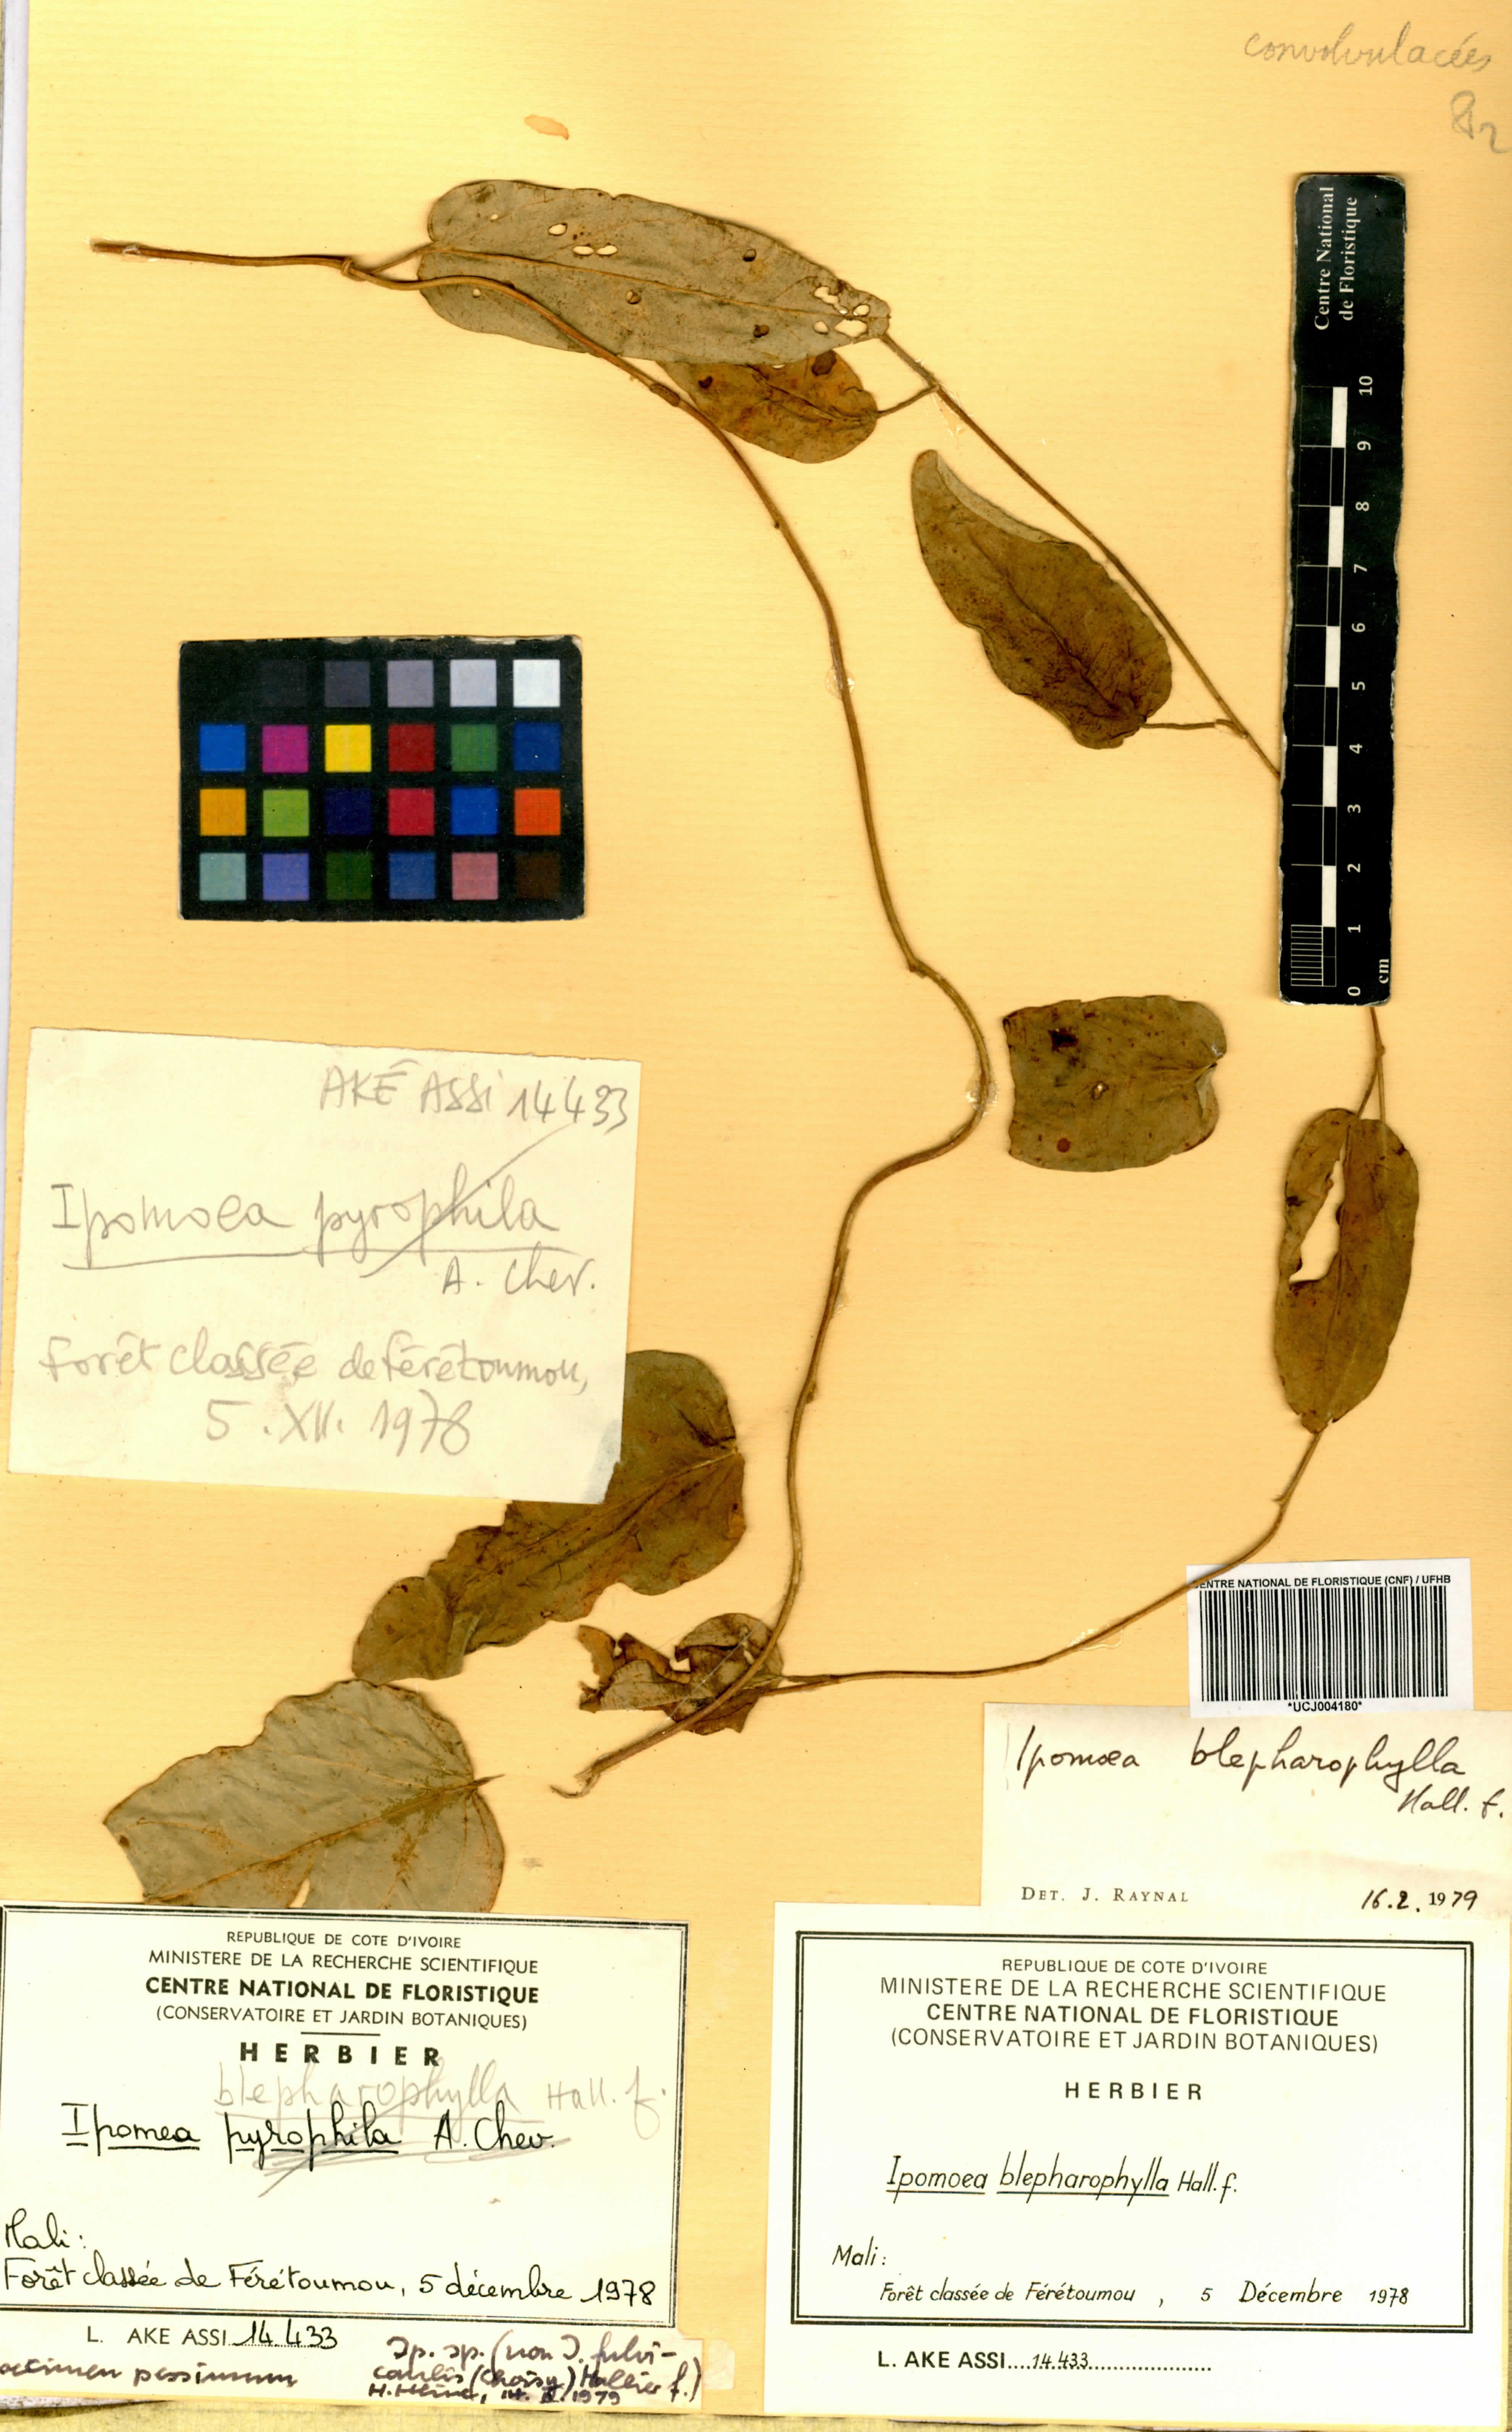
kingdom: Plantae
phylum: Tracheophyta
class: Magnoliopsida
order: Solanales
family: Convolvulaceae
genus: Ipomoea
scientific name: Ipomoea blepharophylla
